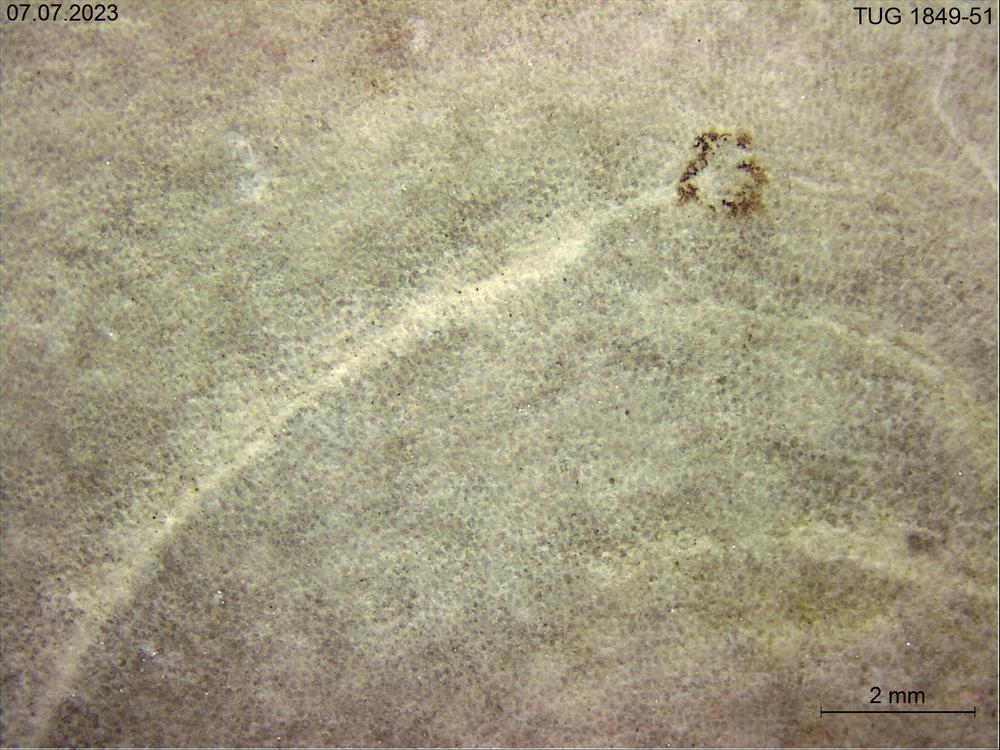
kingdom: Animalia
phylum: Bryozoa
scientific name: Bryozoa
